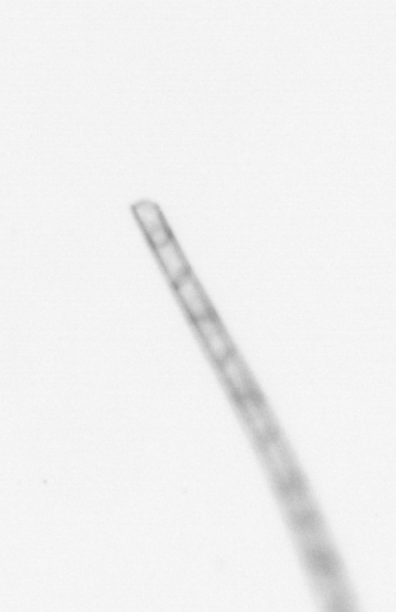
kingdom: Chromista
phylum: Ochrophyta
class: Bacillariophyceae
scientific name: Bacillariophyceae
